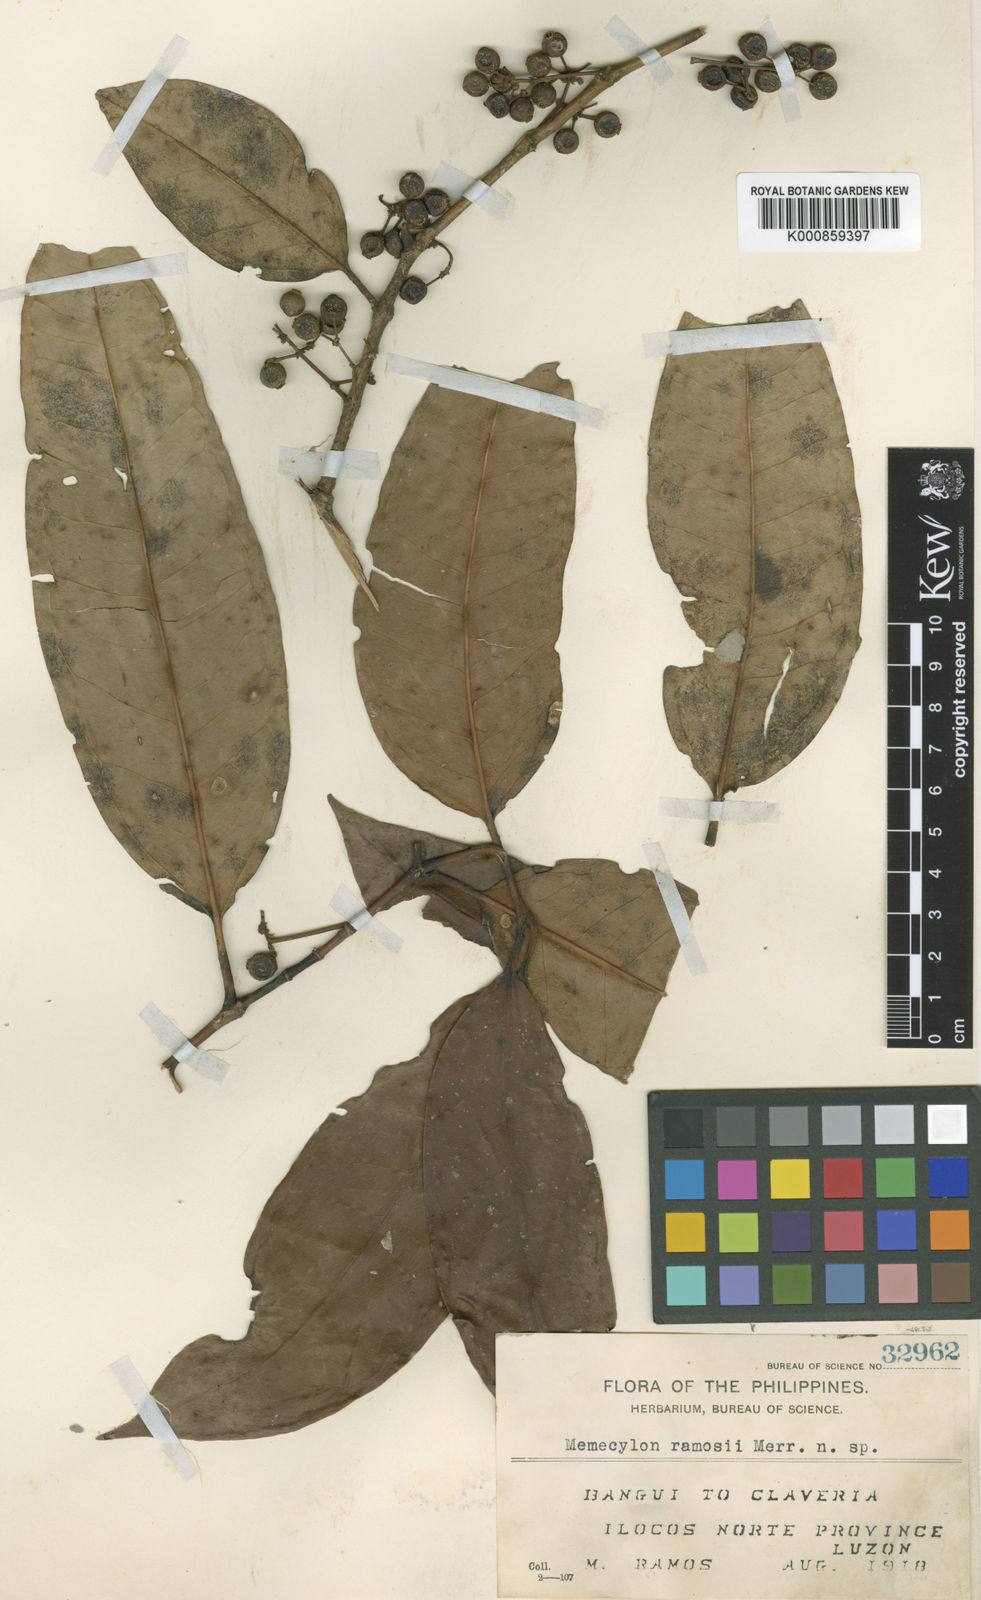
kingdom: Plantae
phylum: Tracheophyta
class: Magnoliopsida
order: Myrtales
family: Melastomataceae
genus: Memecylon
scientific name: Memecylon ramosii
